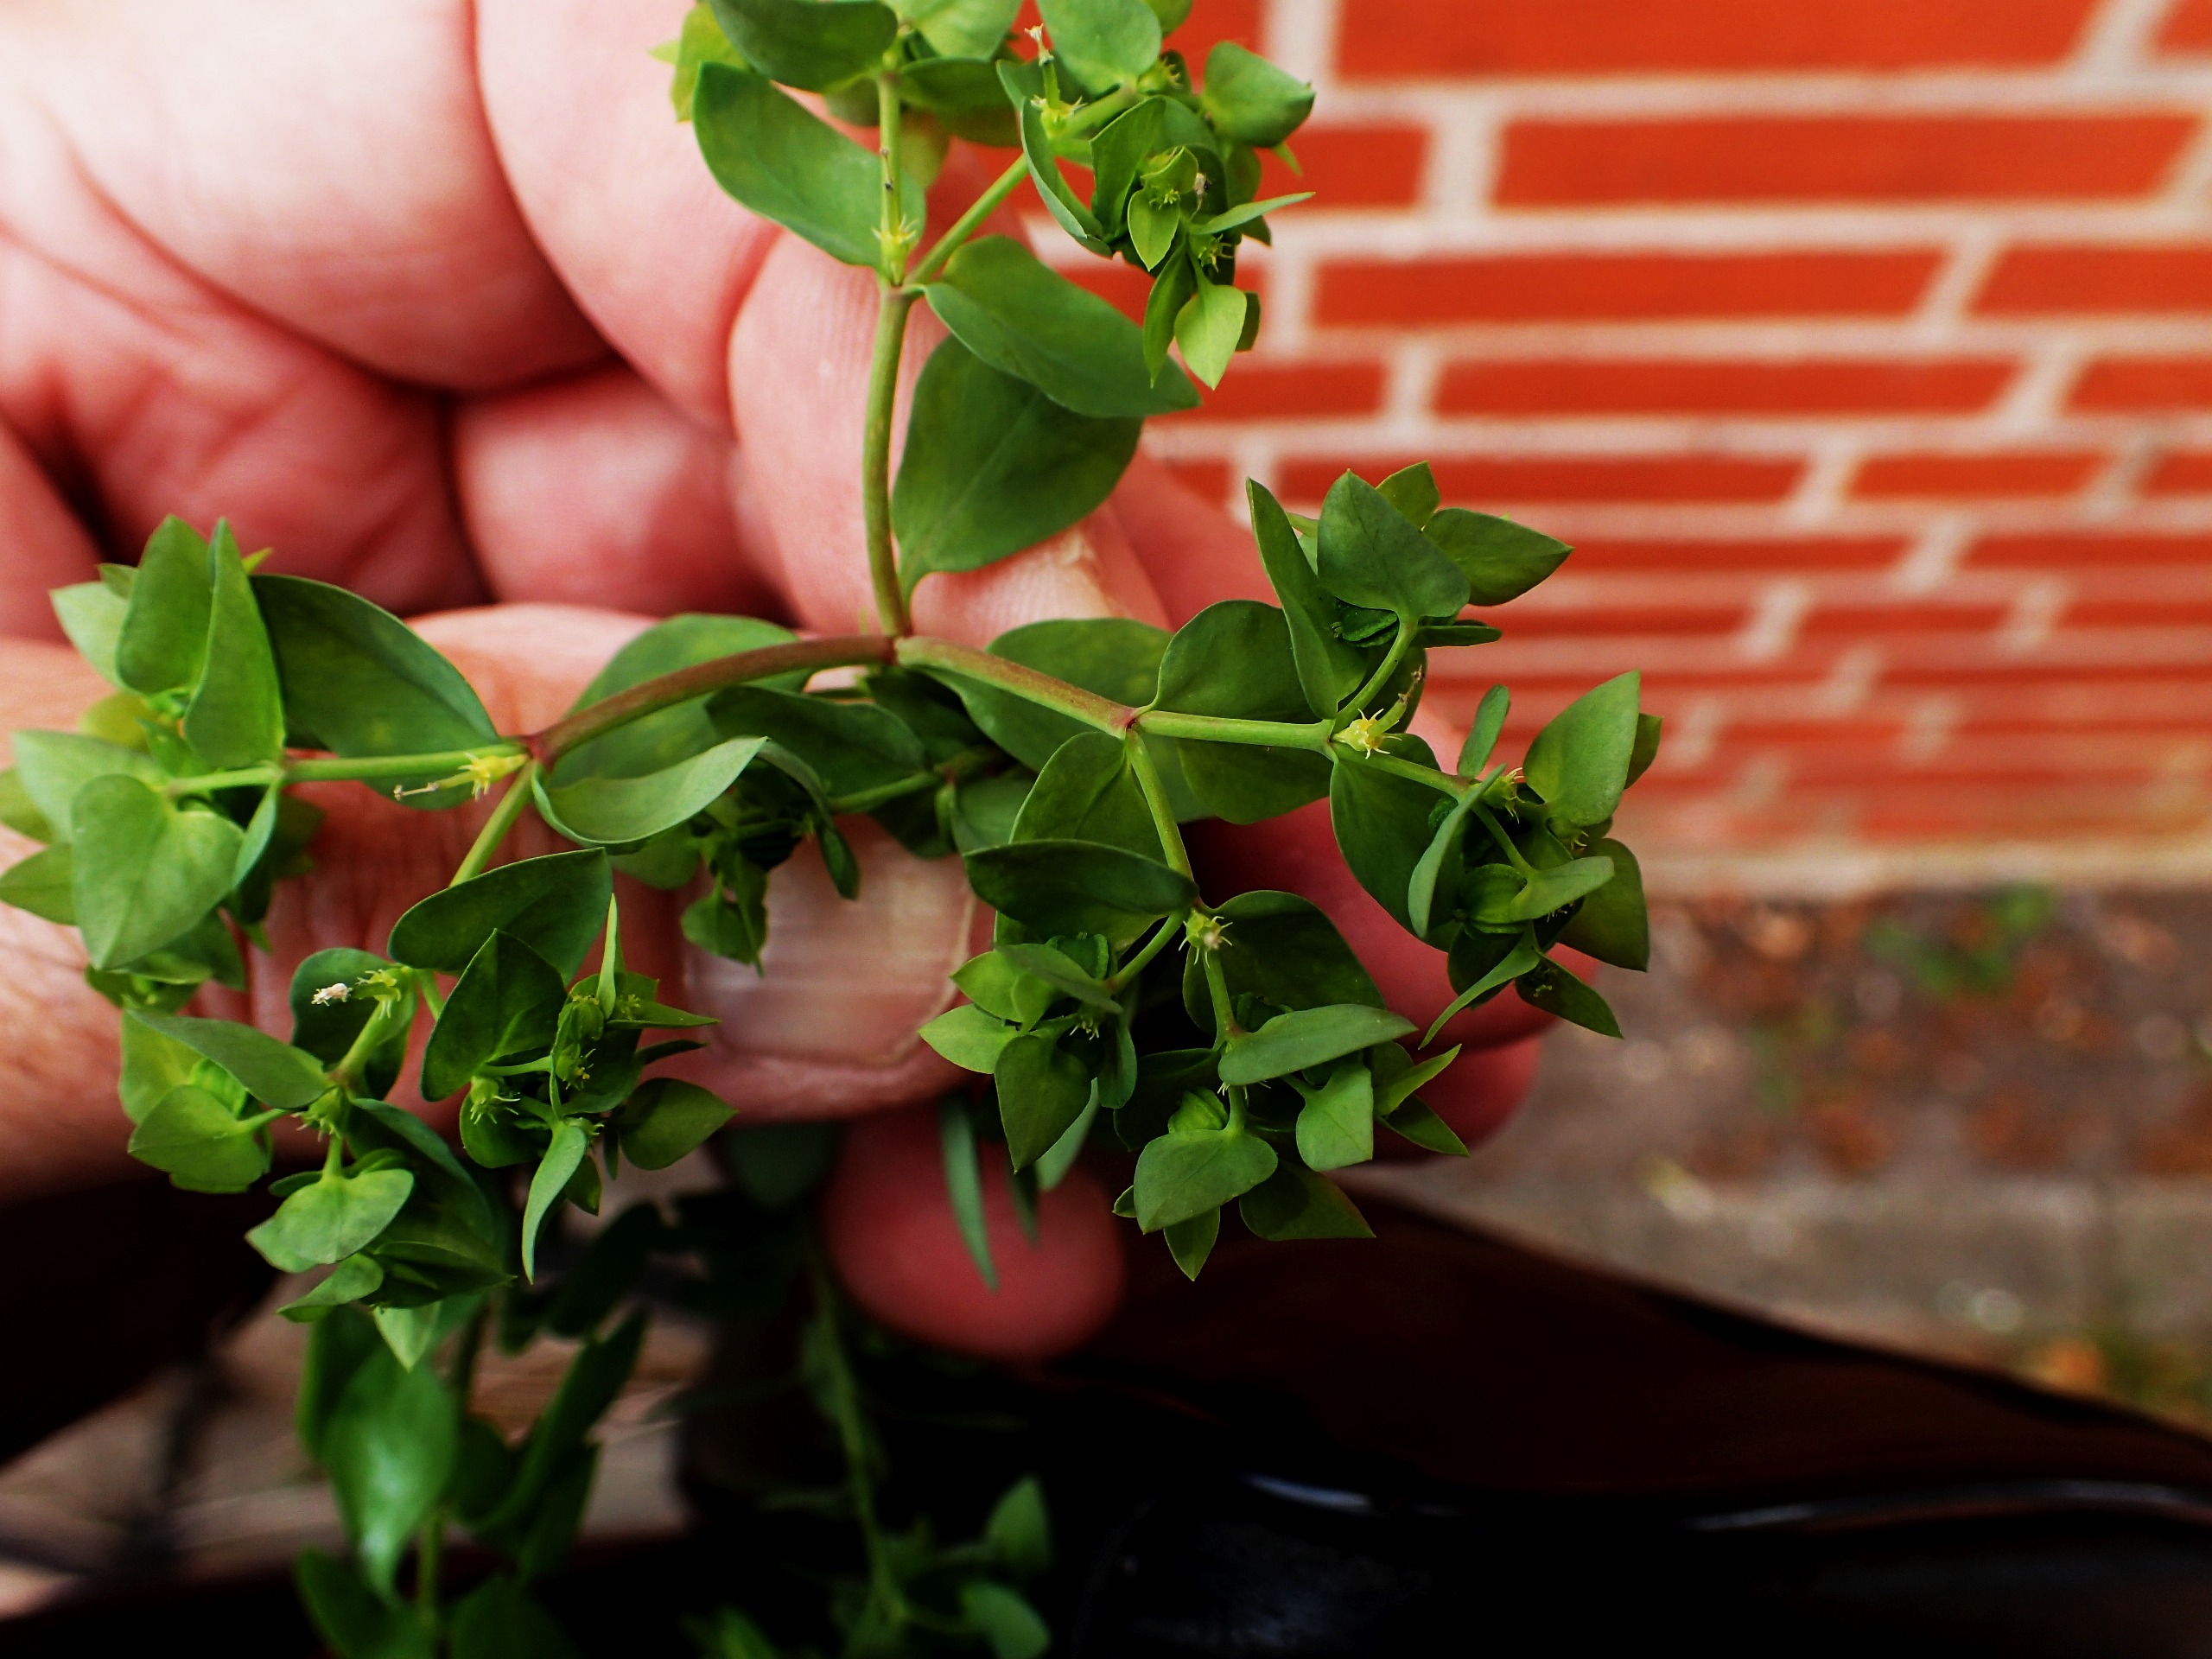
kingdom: Plantae
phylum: Tracheophyta
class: Magnoliopsida
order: Malpighiales
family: Euphorbiaceae
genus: Euphorbia
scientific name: Euphorbia peplus
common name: Gaffel-vortemælk
